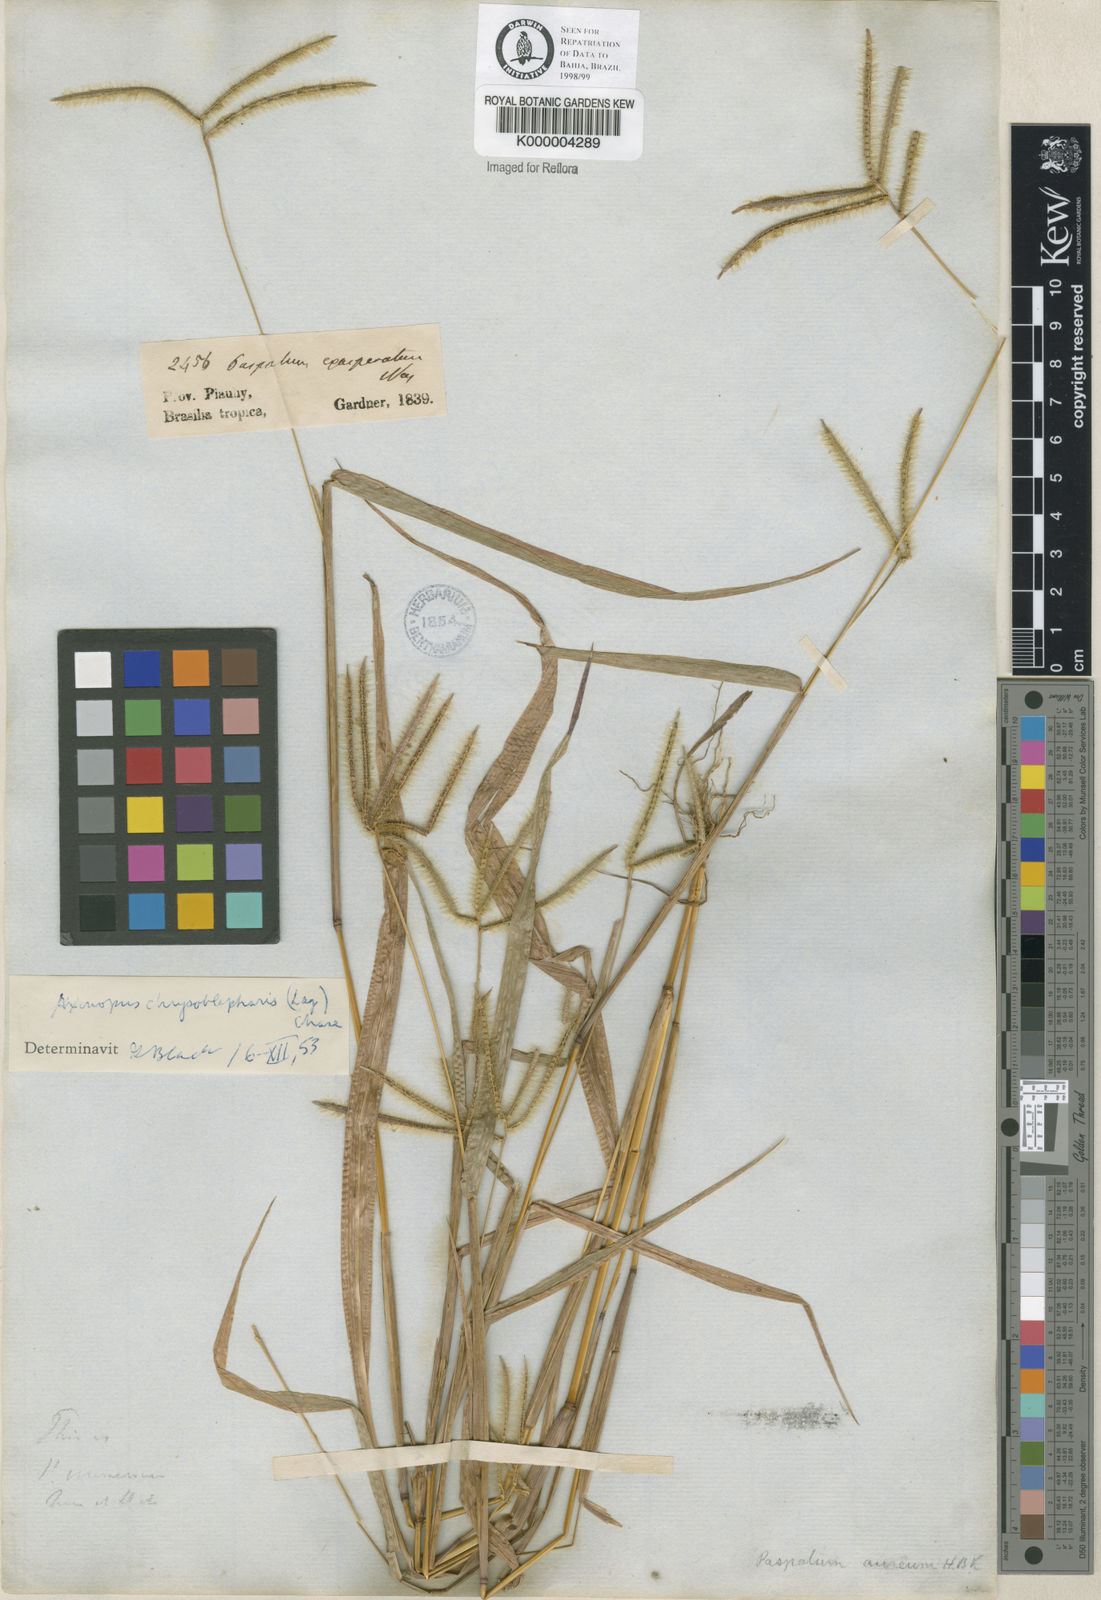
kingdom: Plantae
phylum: Tracheophyta
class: Liliopsida
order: Poales
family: Poaceae
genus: Axonopus
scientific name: Axonopus chrysoblepharis
